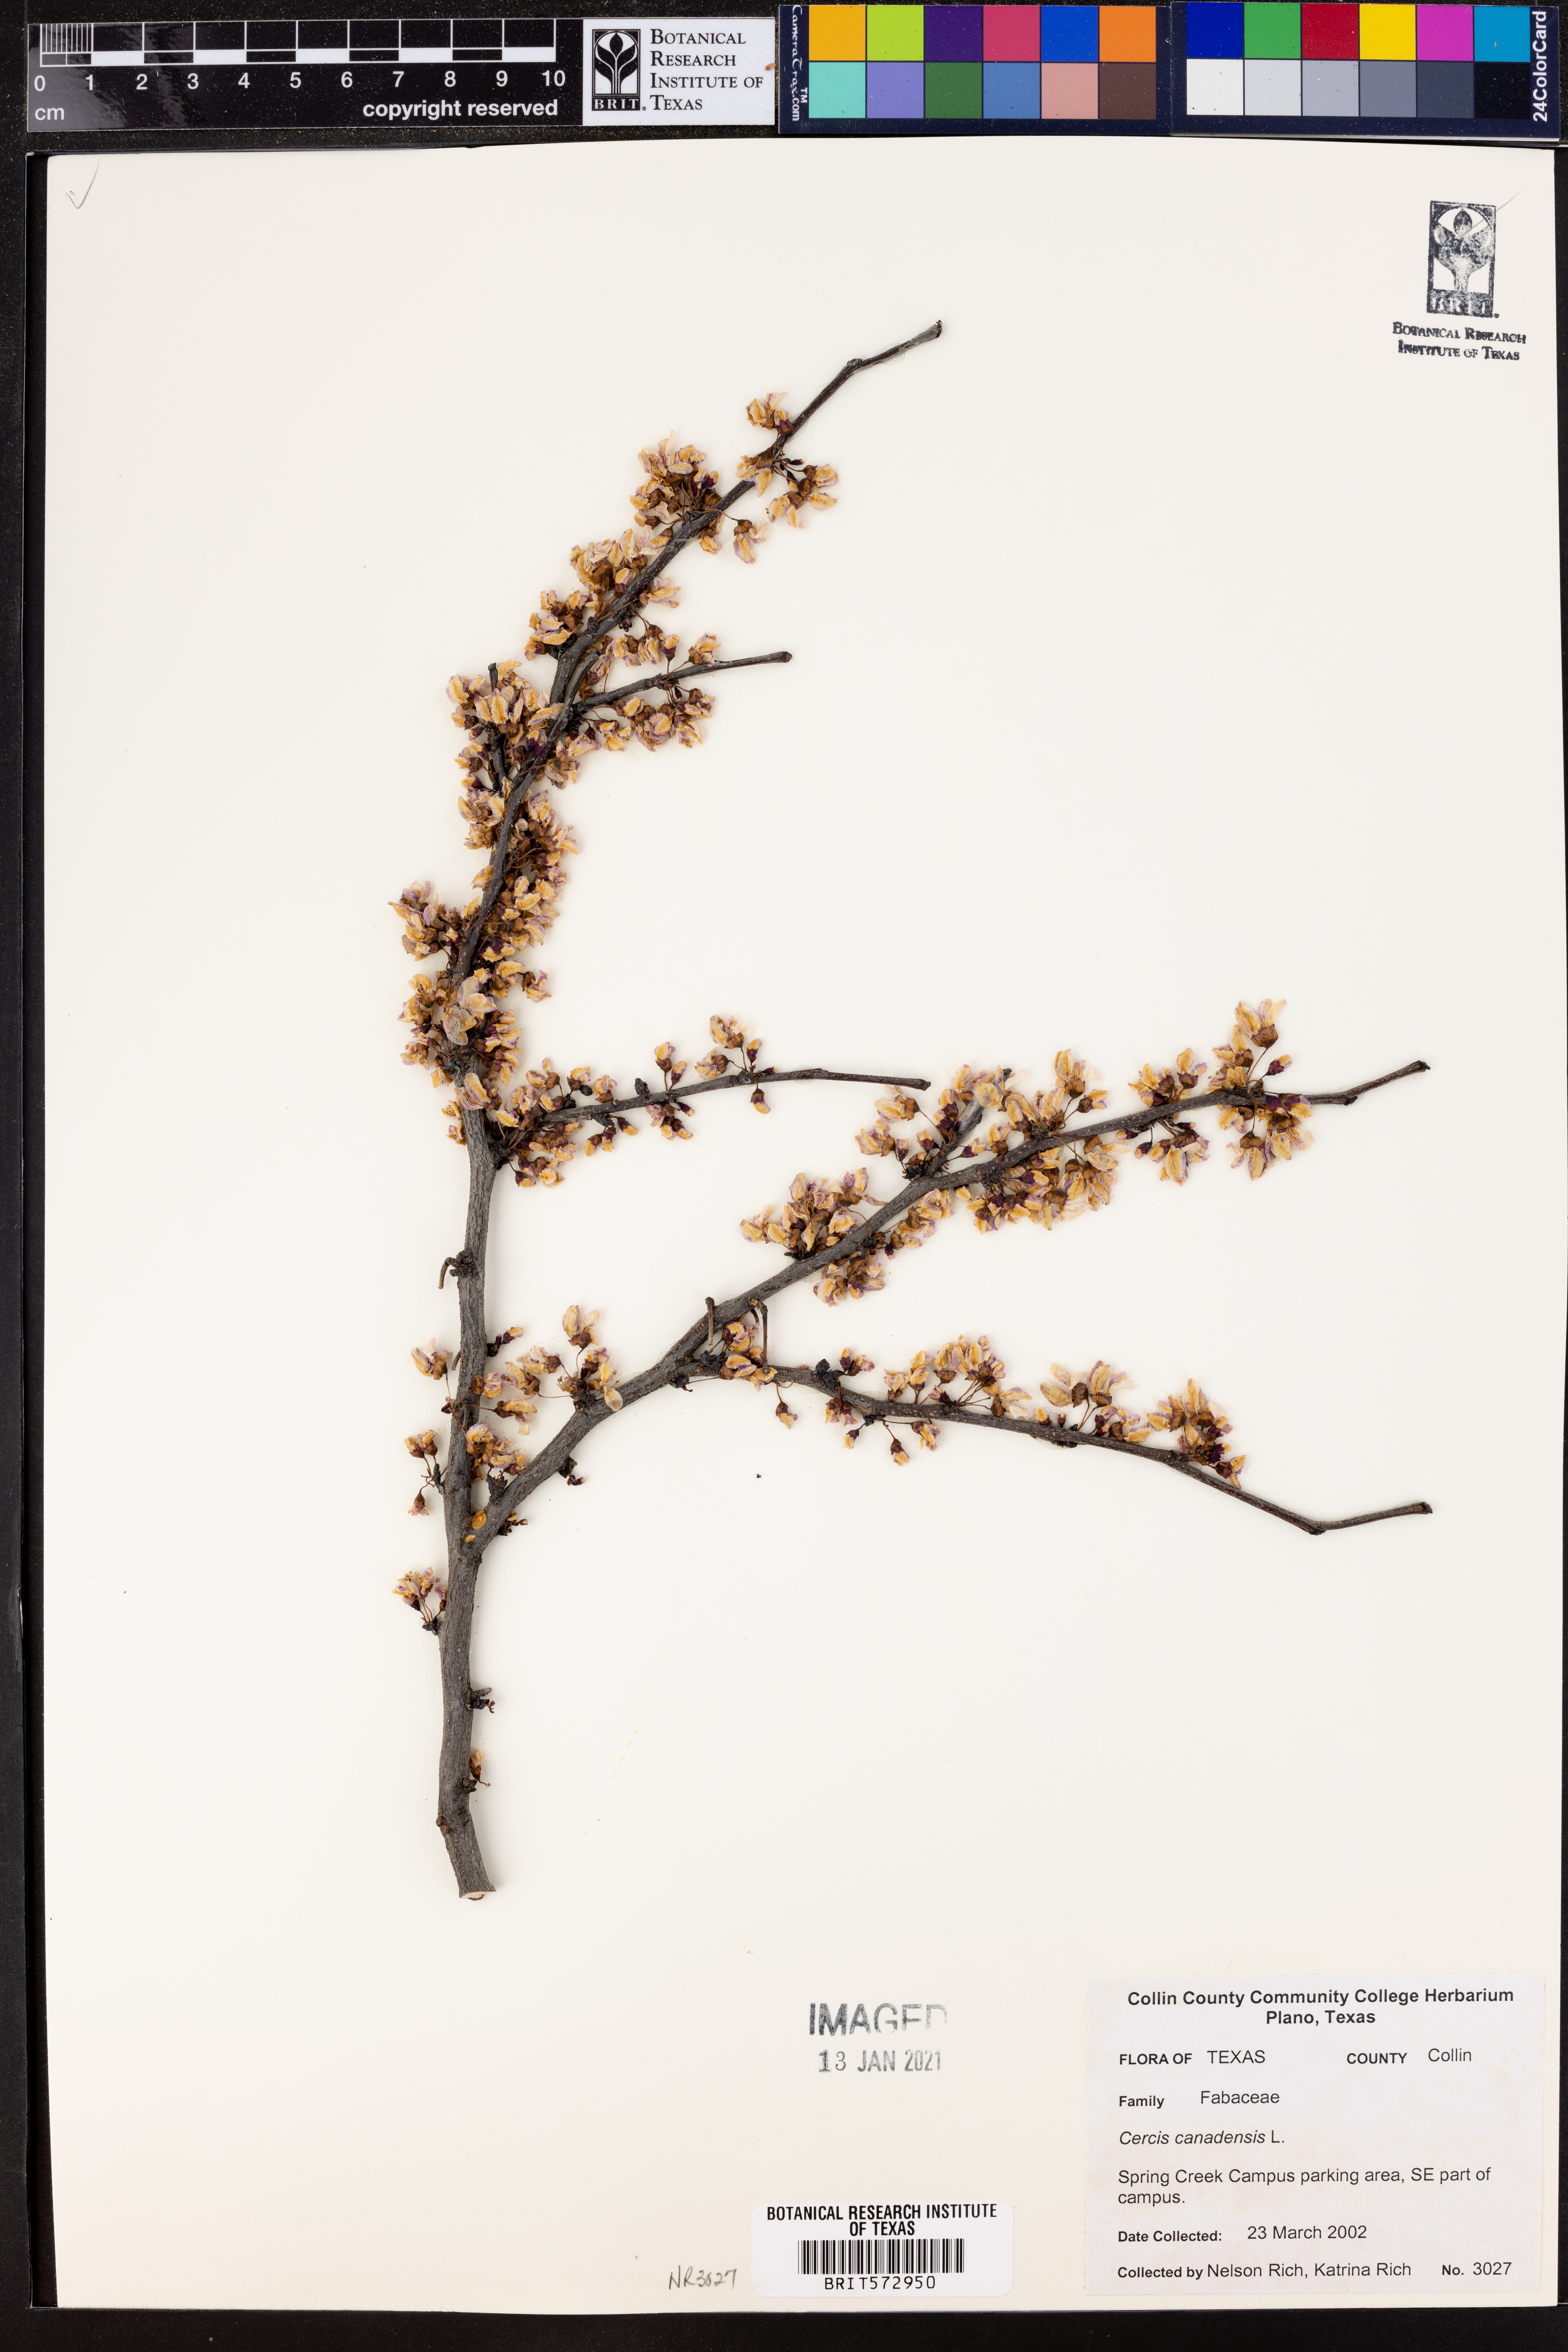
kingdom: Plantae
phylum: Tracheophyta
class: Magnoliopsida
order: Fabales
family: Fabaceae
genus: Cercis
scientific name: Cercis canadensis
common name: Eastern redbud
